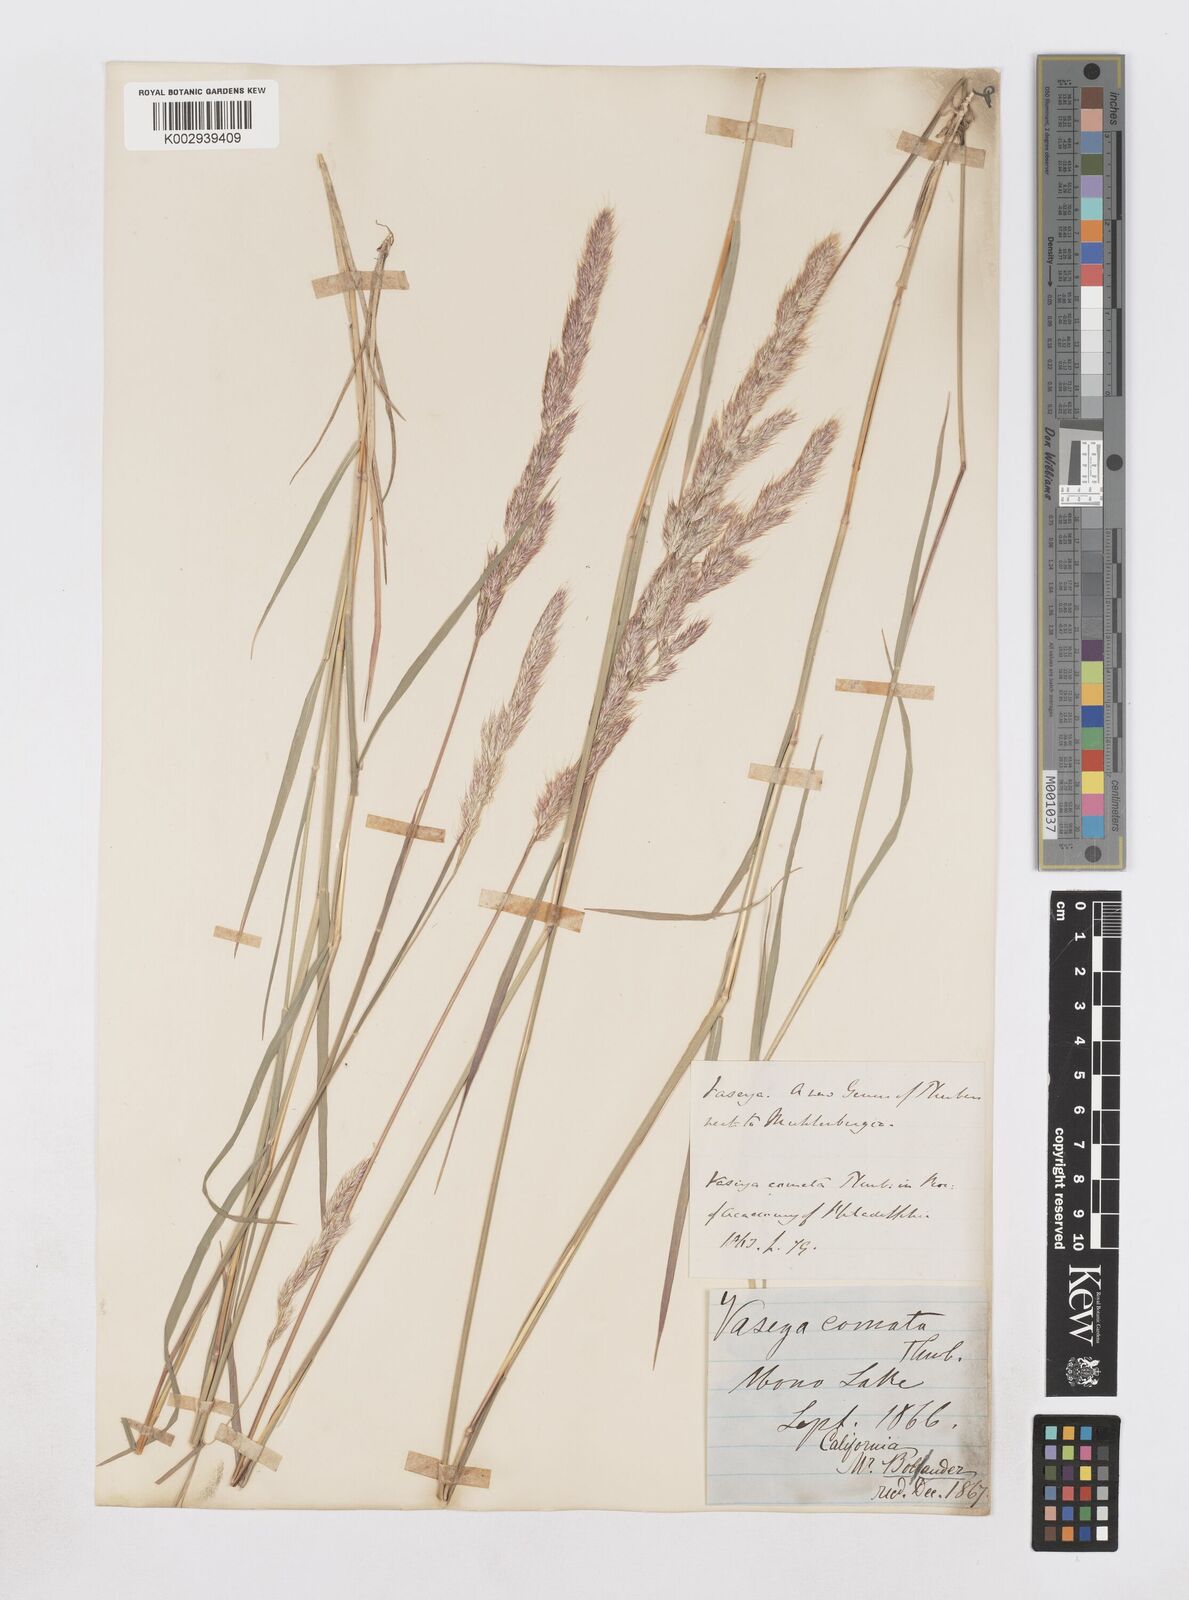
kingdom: Plantae
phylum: Tracheophyta
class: Liliopsida
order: Poales
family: Poaceae
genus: Muhlenbergia
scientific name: Muhlenbergia andina
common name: Foxtail muhly
